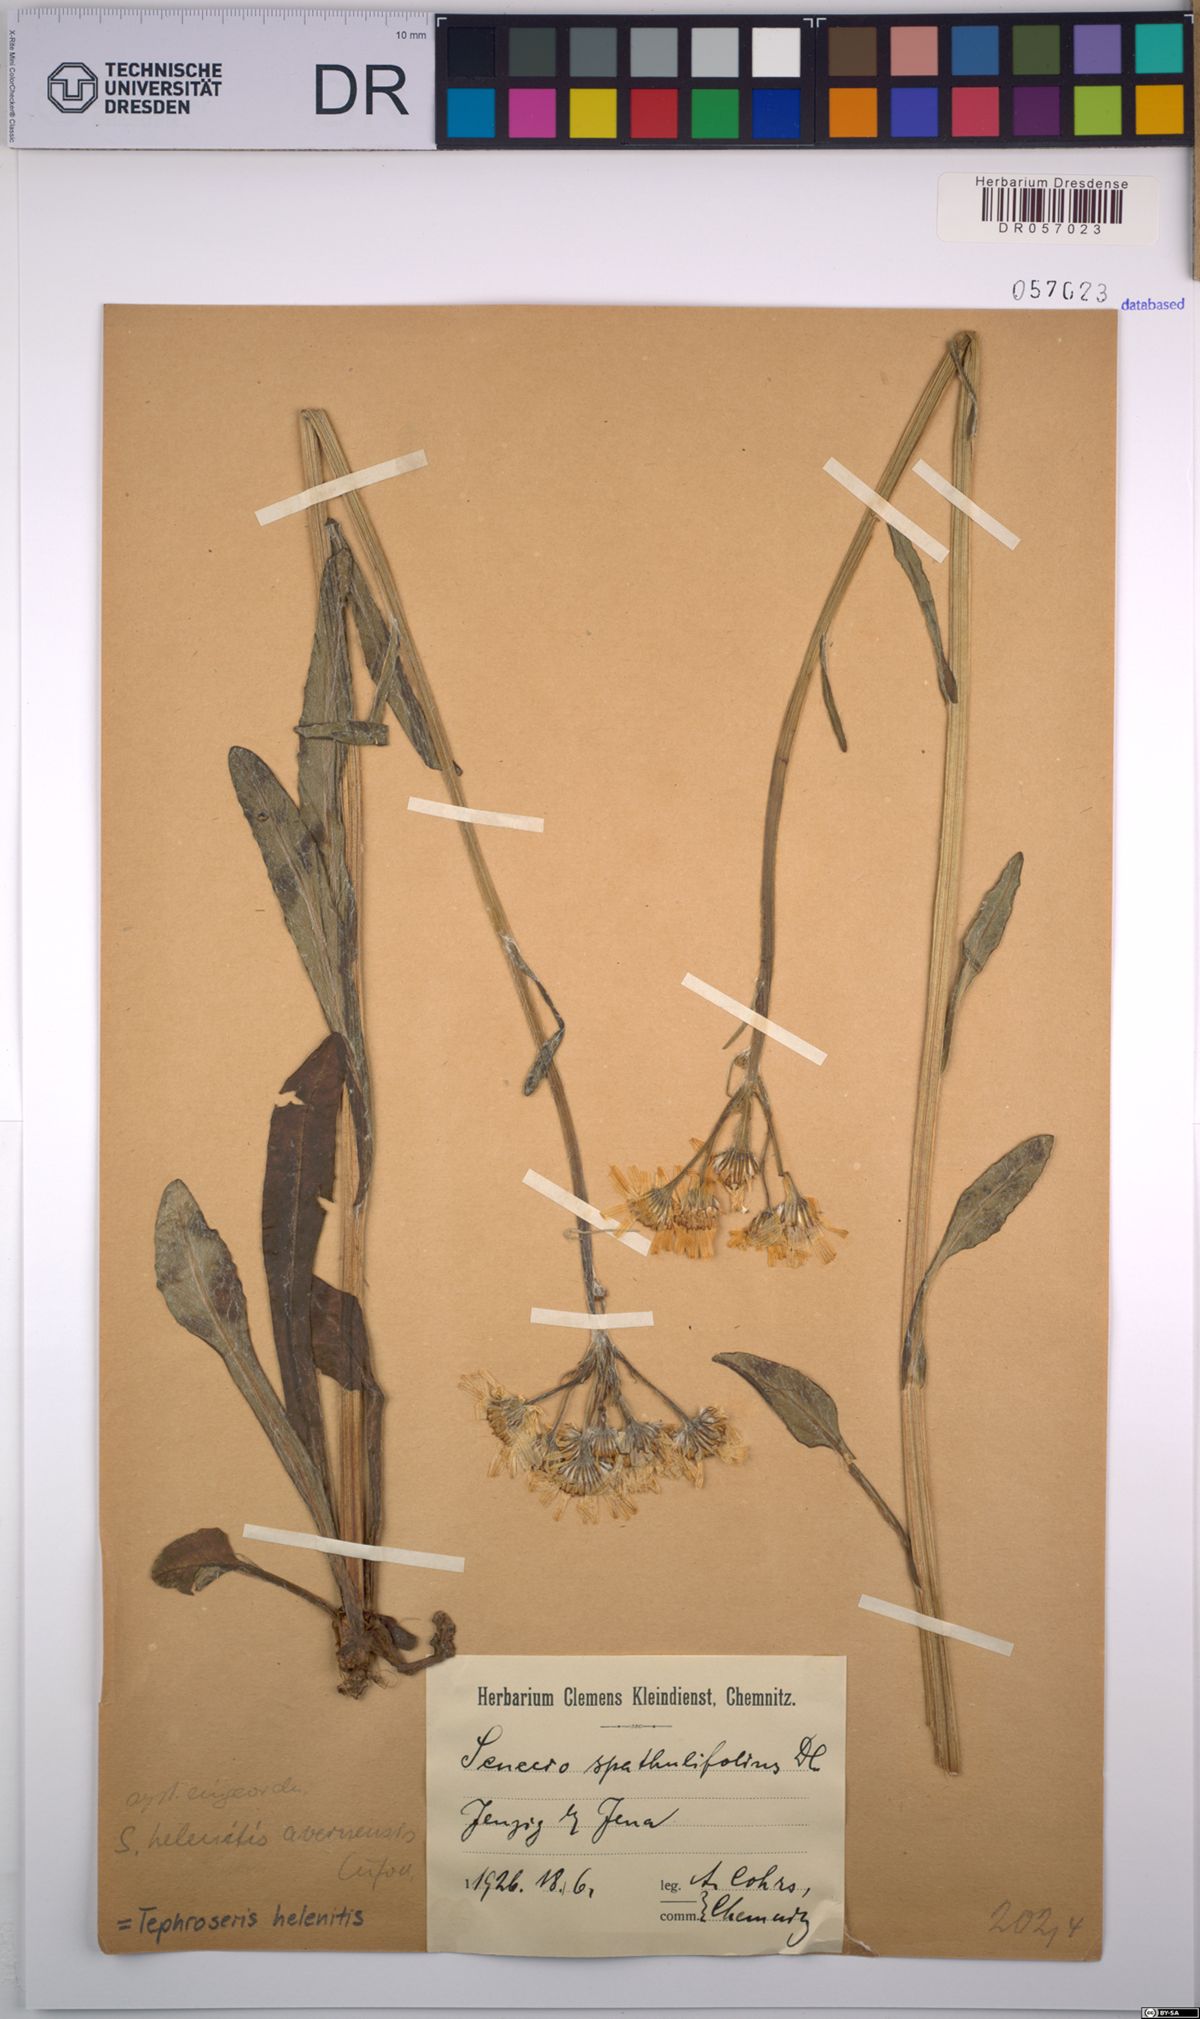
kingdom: Plantae
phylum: Tracheophyta
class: Magnoliopsida
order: Asterales
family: Asteraceae
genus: Tephroseris
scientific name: Tephroseris helenitis
